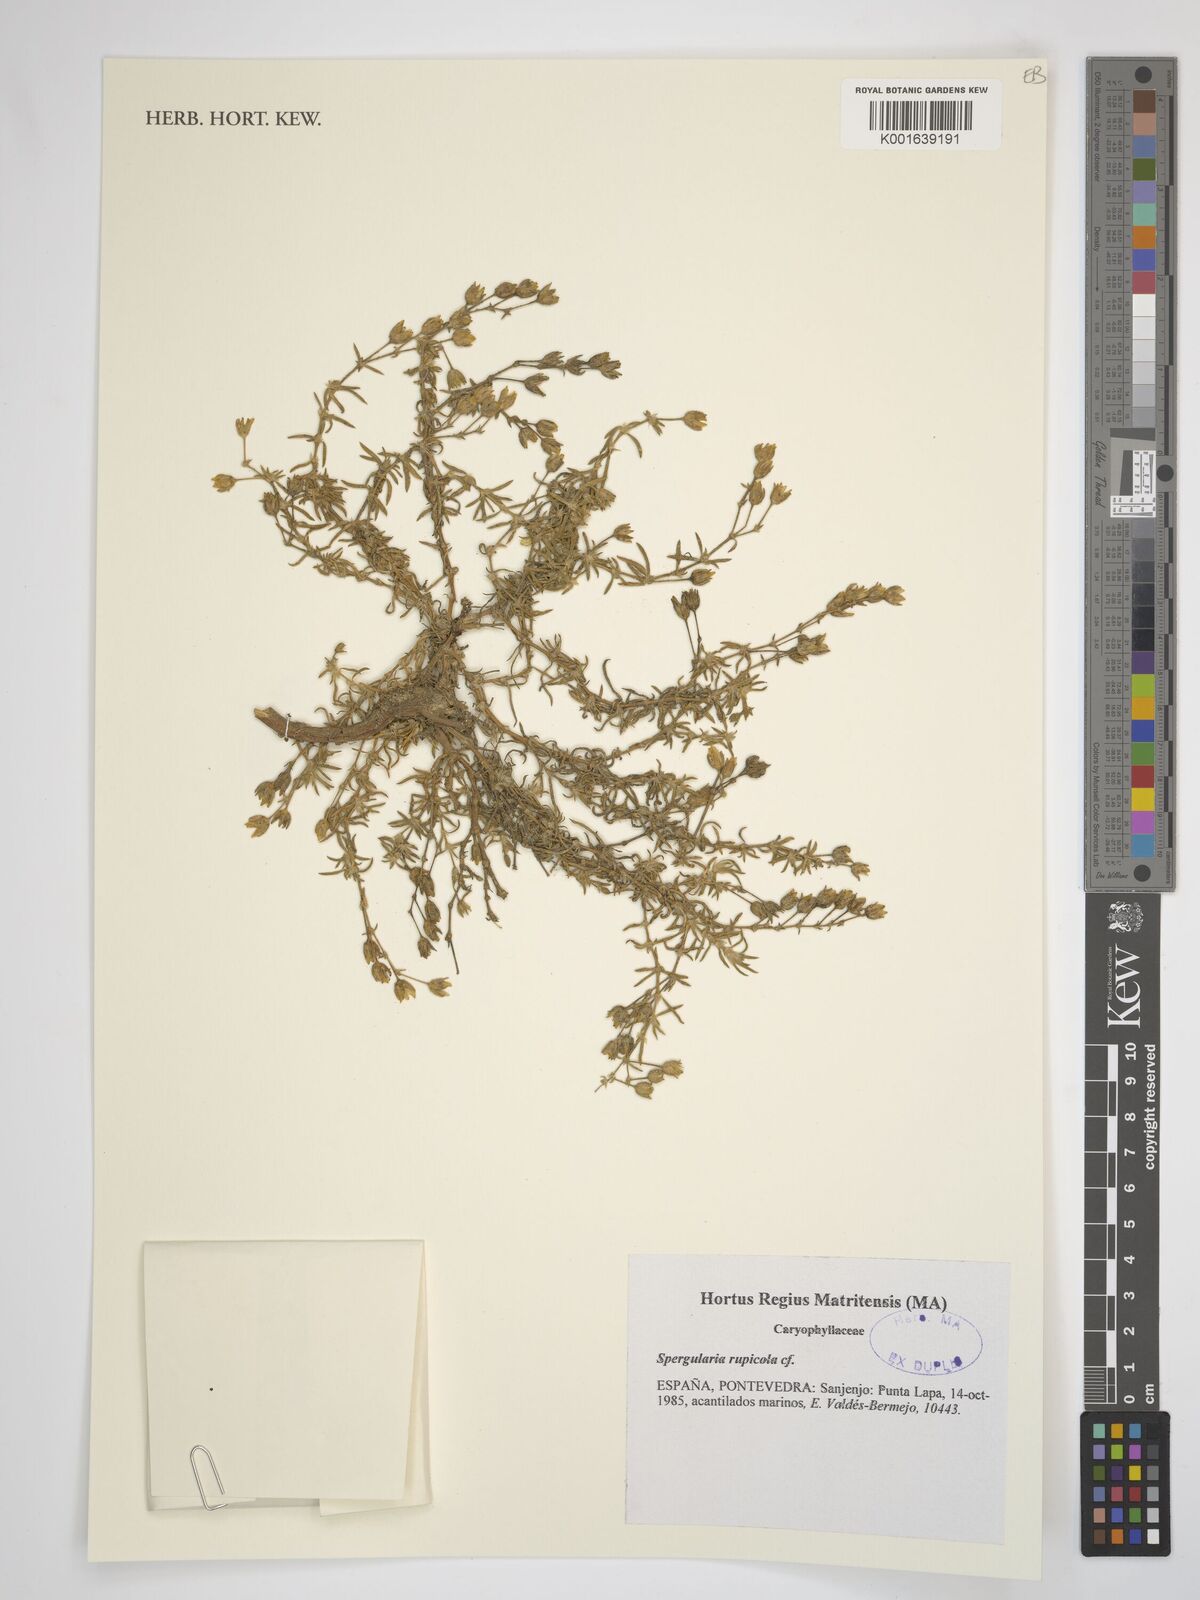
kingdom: Plantae
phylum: Tracheophyta
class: Magnoliopsida
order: Caryophyllales
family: Caryophyllaceae
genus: Spergularia
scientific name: Spergularia rupicola
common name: Cliff sand-spurrey
